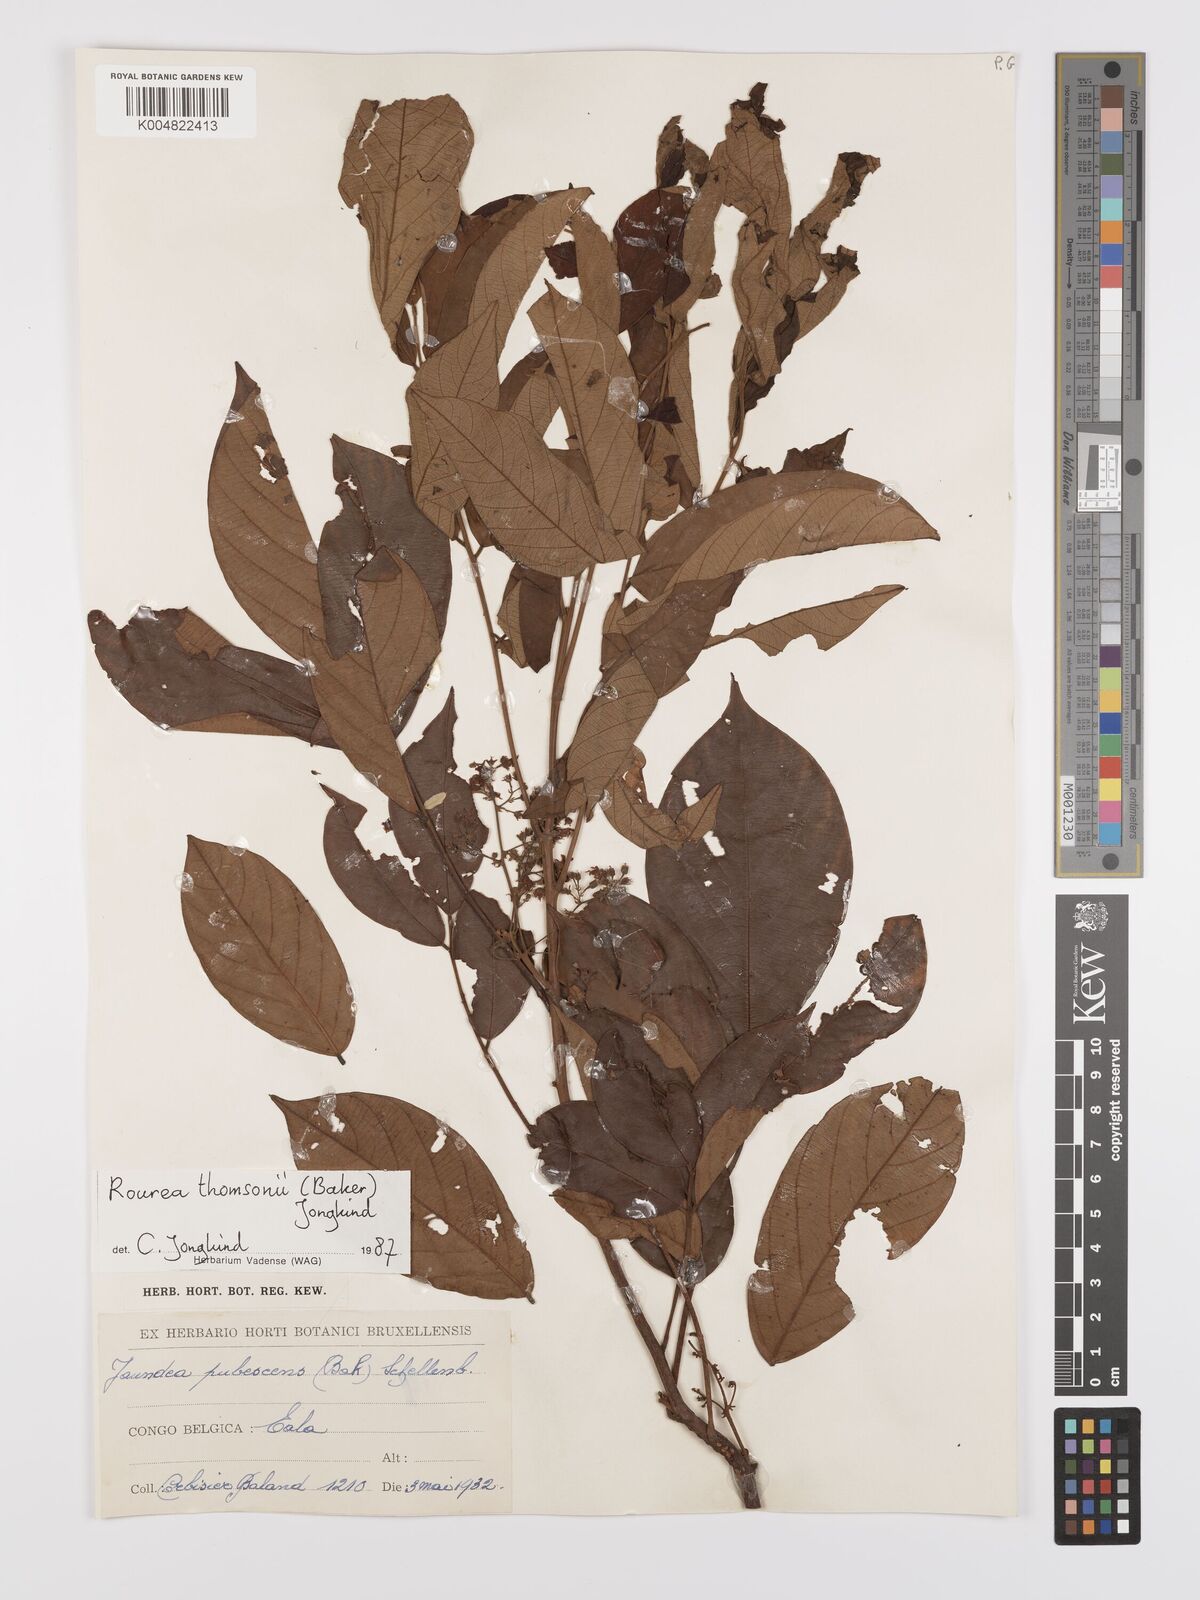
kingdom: Plantae
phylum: Tracheophyta
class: Magnoliopsida
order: Oxalidales
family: Connaraceae
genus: Rourea
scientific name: Rourea pubescens
